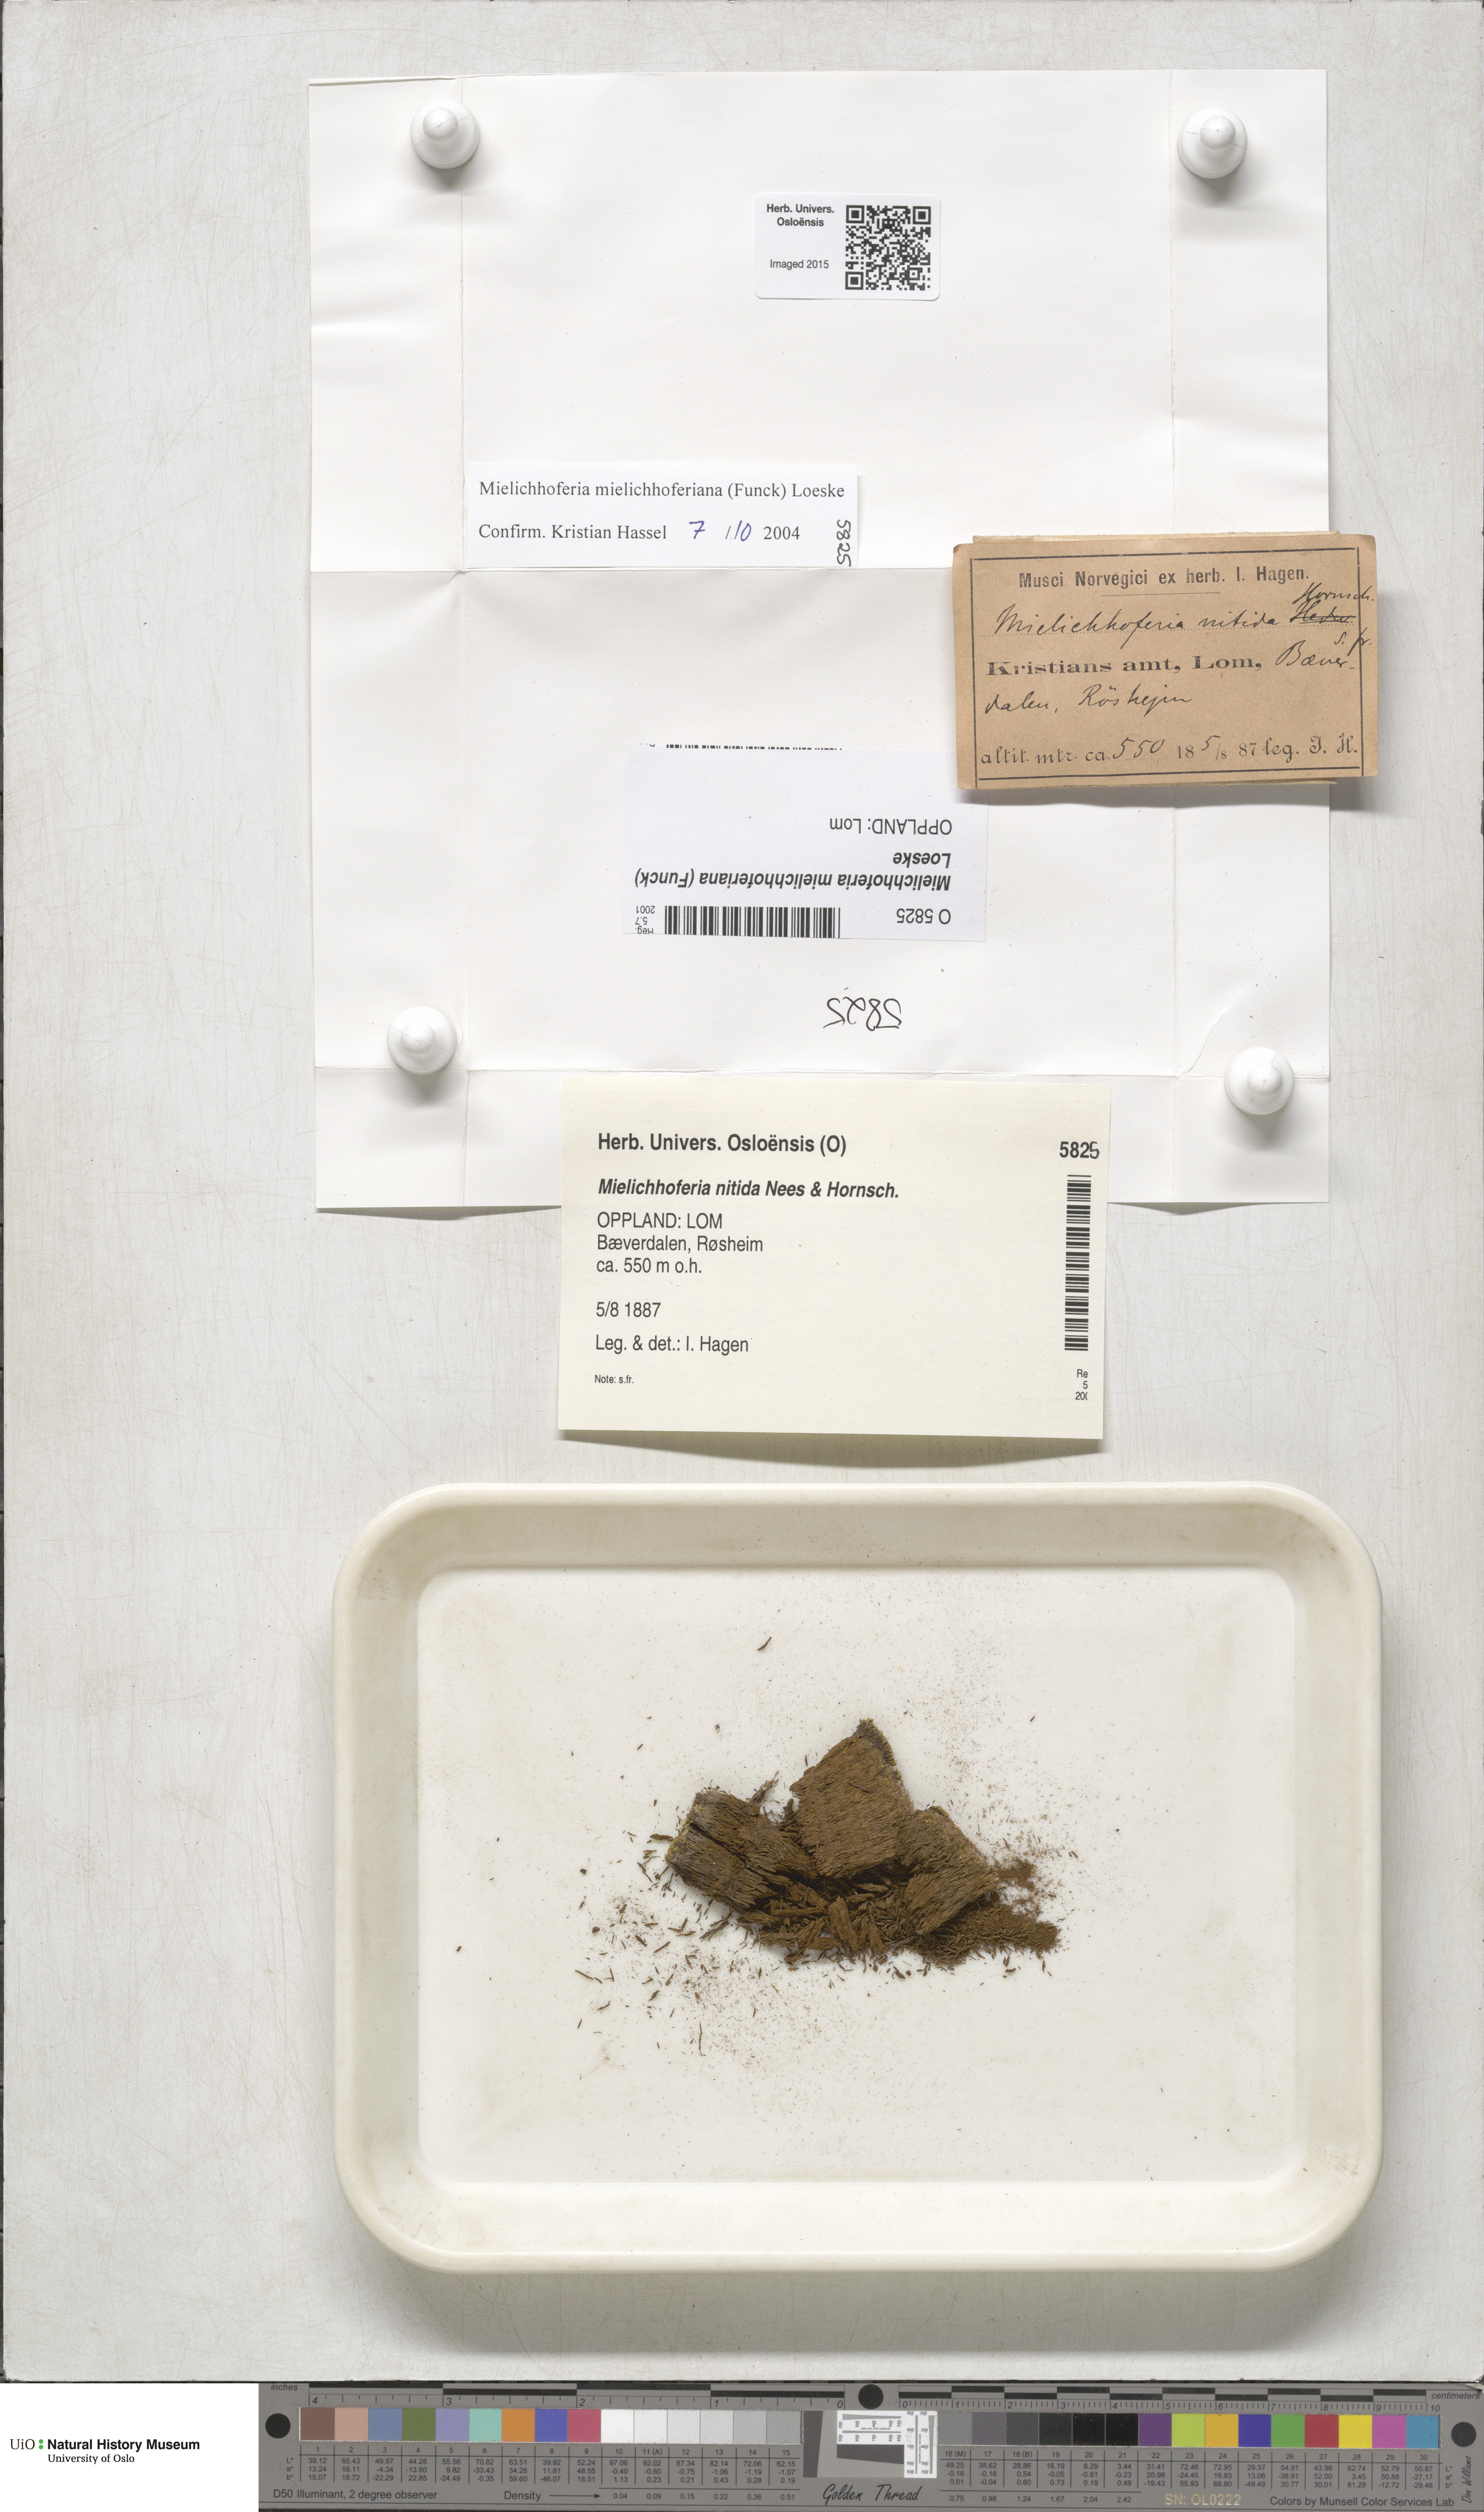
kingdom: Plantae
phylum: Bryophyta
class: Bryopsida
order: Bryales
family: Mniaceae
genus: Mielichhoferia
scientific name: Mielichhoferia mielichhoferiana
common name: Alpine copper-moss
